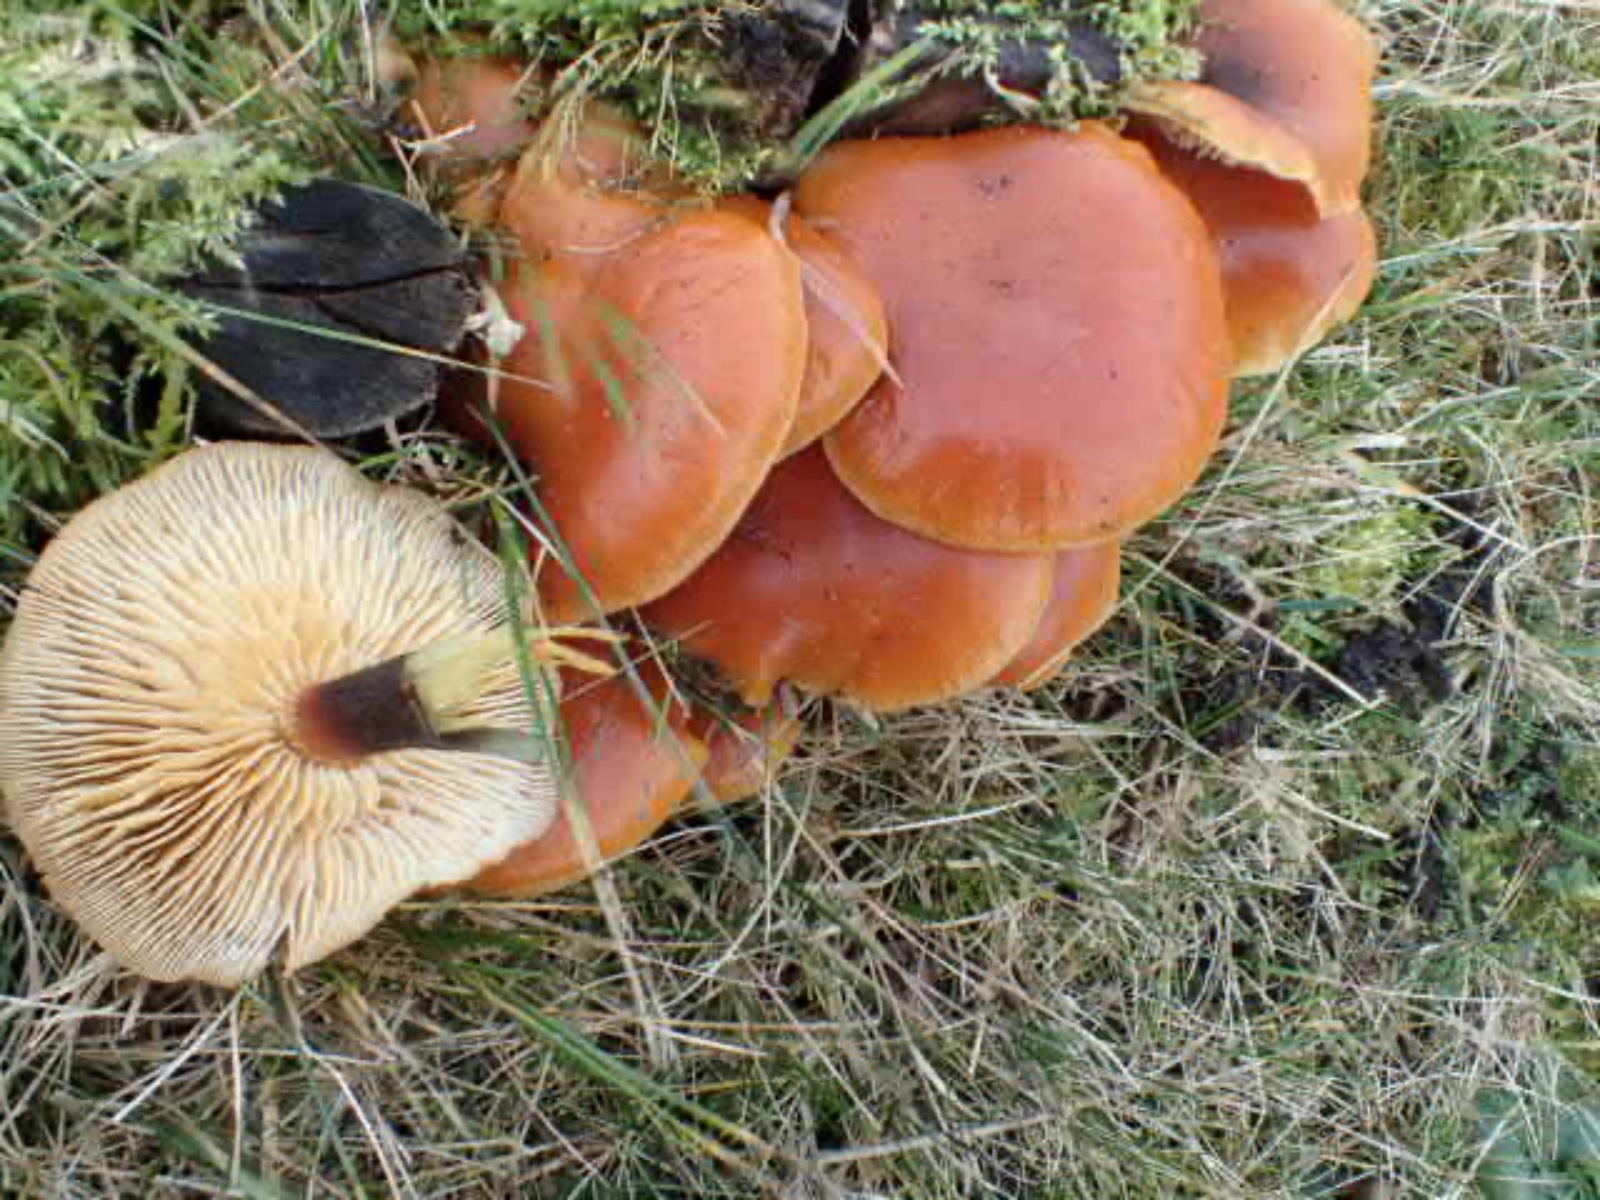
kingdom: Fungi
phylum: Basidiomycota
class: Agaricomycetes
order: Agaricales
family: Physalacriaceae
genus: Flammulina
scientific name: Flammulina velutipes
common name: gul fløjlsfod
